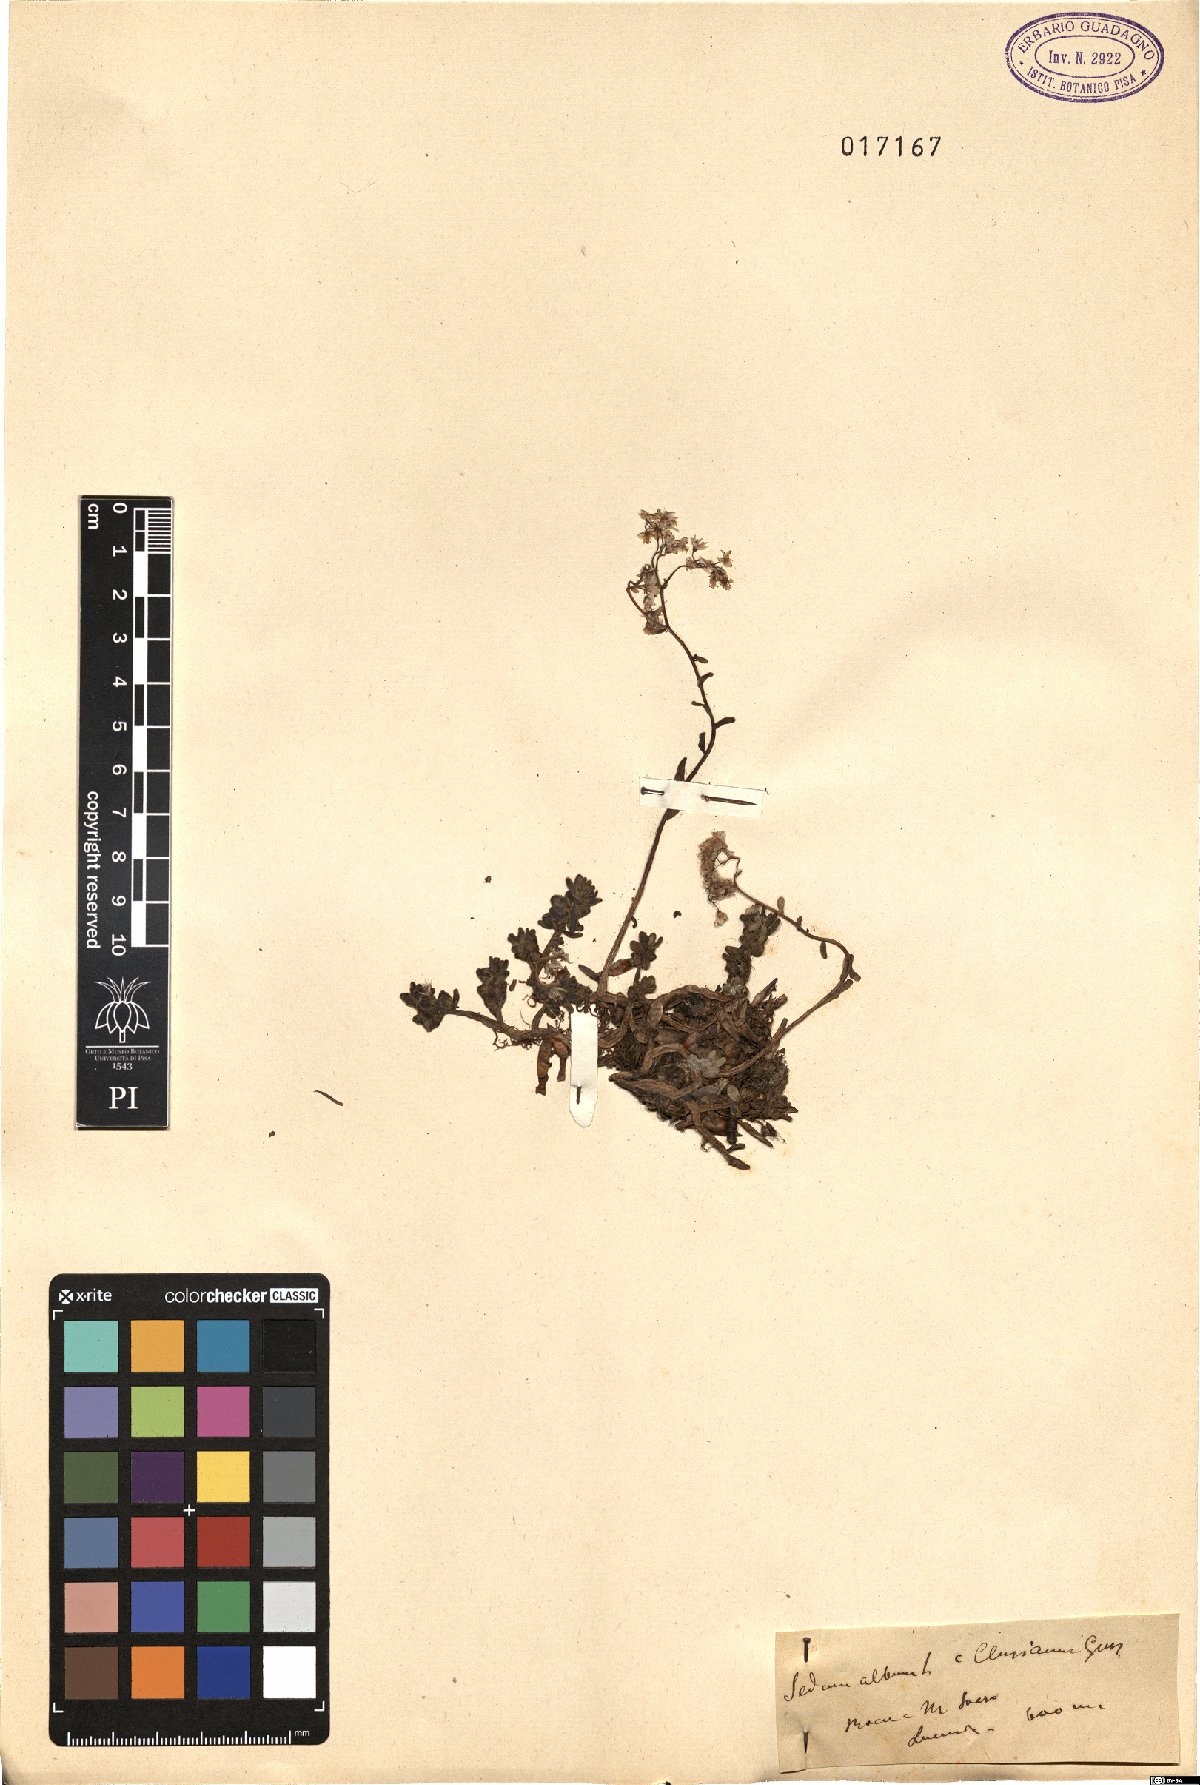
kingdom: Plantae
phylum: Tracheophyta
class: Magnoliopsida
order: Saxifragales
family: Crassulaceae
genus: Sedum
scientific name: Sedum gypsicola
